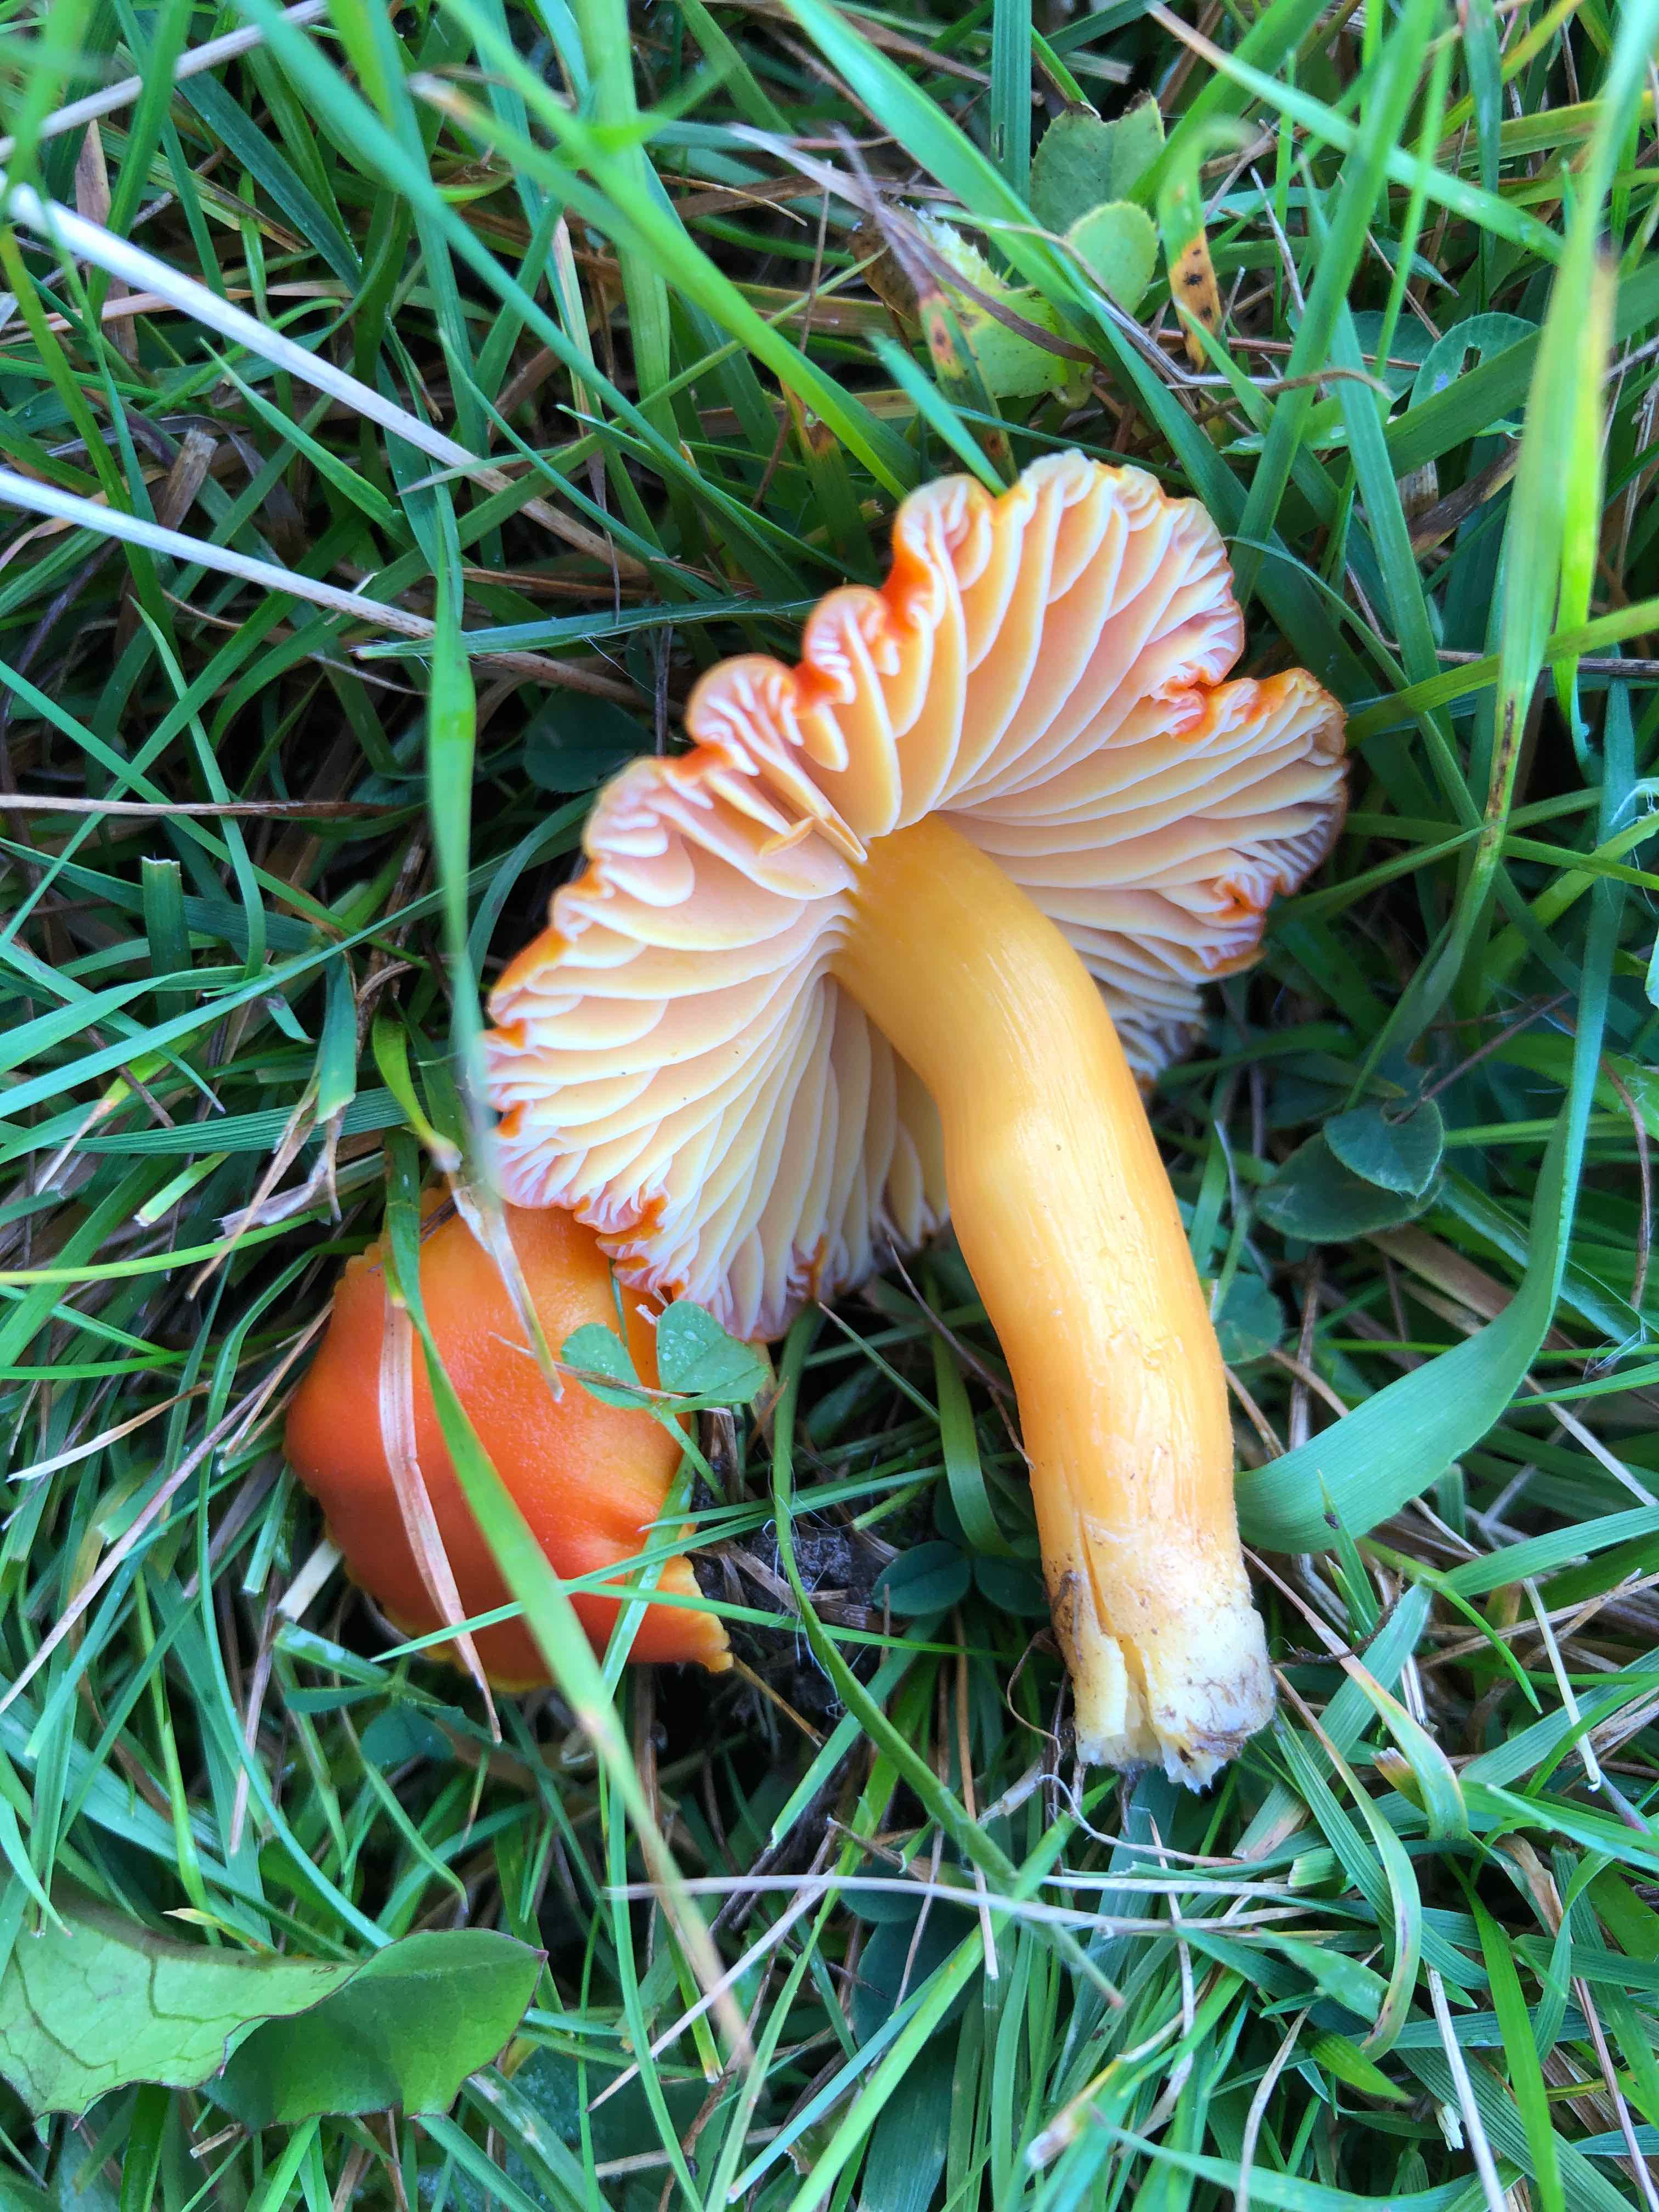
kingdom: Fungi
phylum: Basidiomycota
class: Agaricomycetes
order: Agaricales
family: Hygrophoraceae
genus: Hygrocybe
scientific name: Hygrocybe reidii
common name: honning-vokshat
